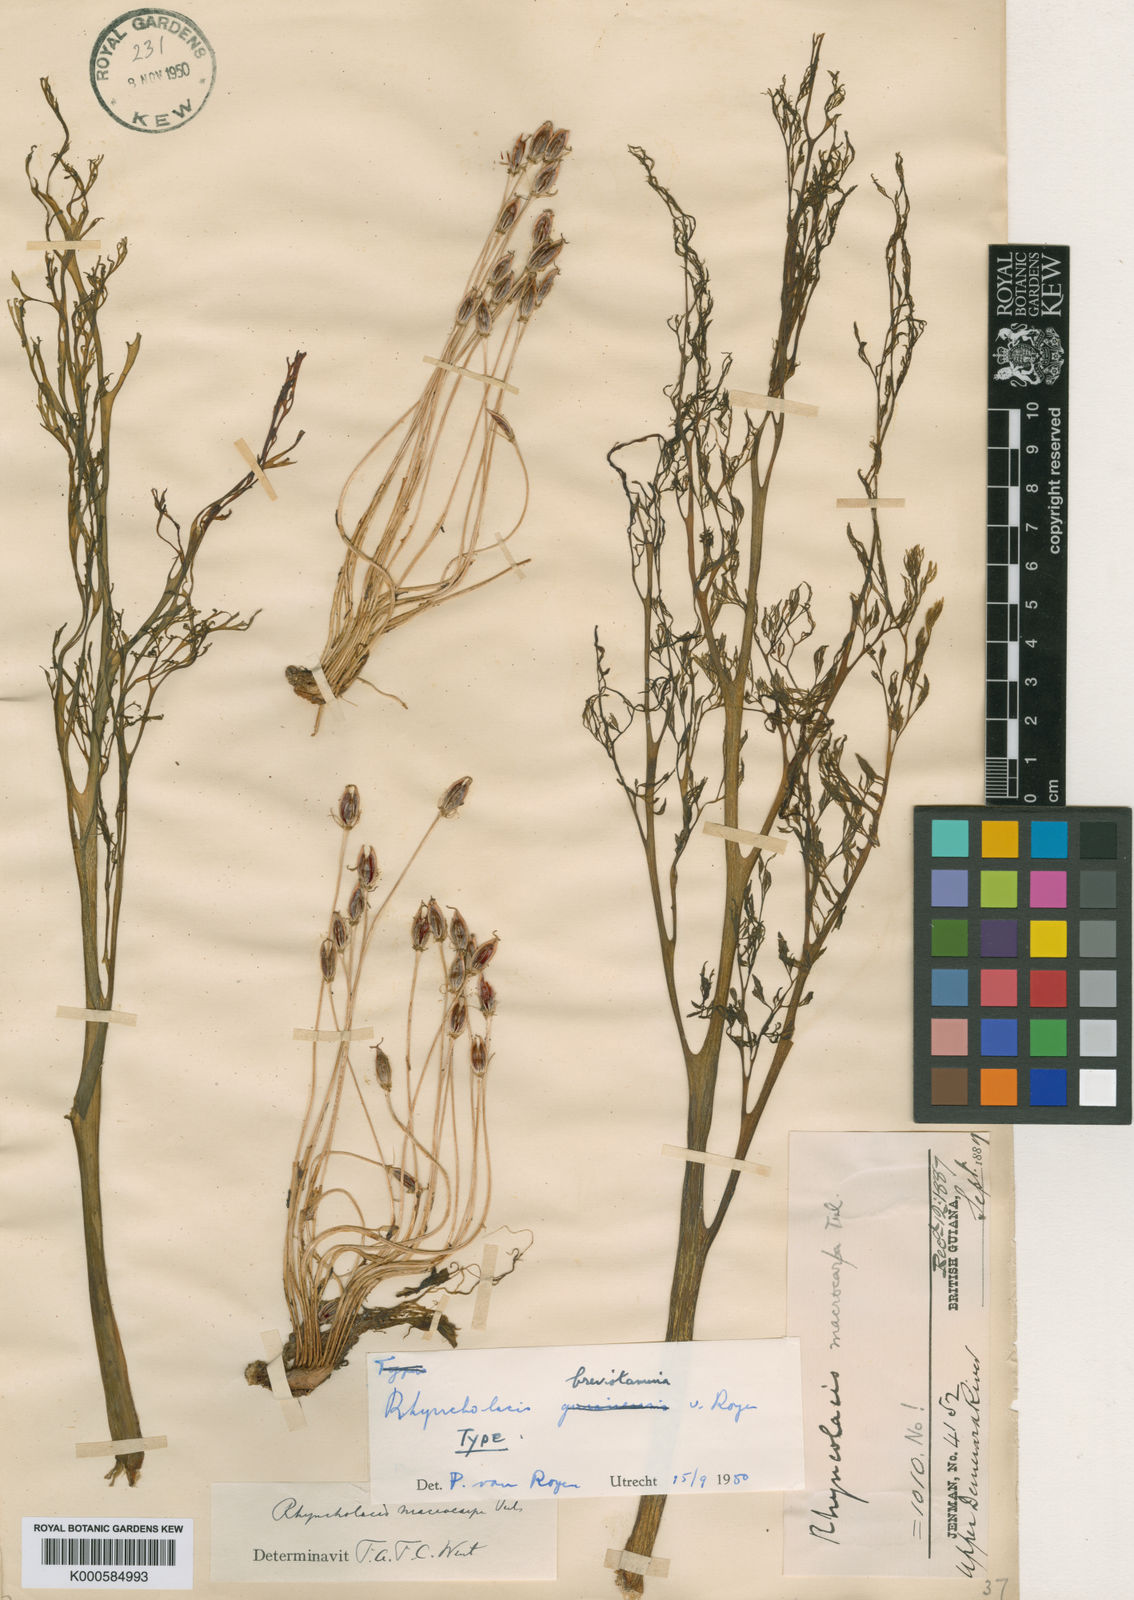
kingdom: Plantae
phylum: Tracheophyta
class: Magnoliopsida
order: Malpighiales
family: Podostemaceae
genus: Rhyncholacis
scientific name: Rhyncholacis brevistamina
